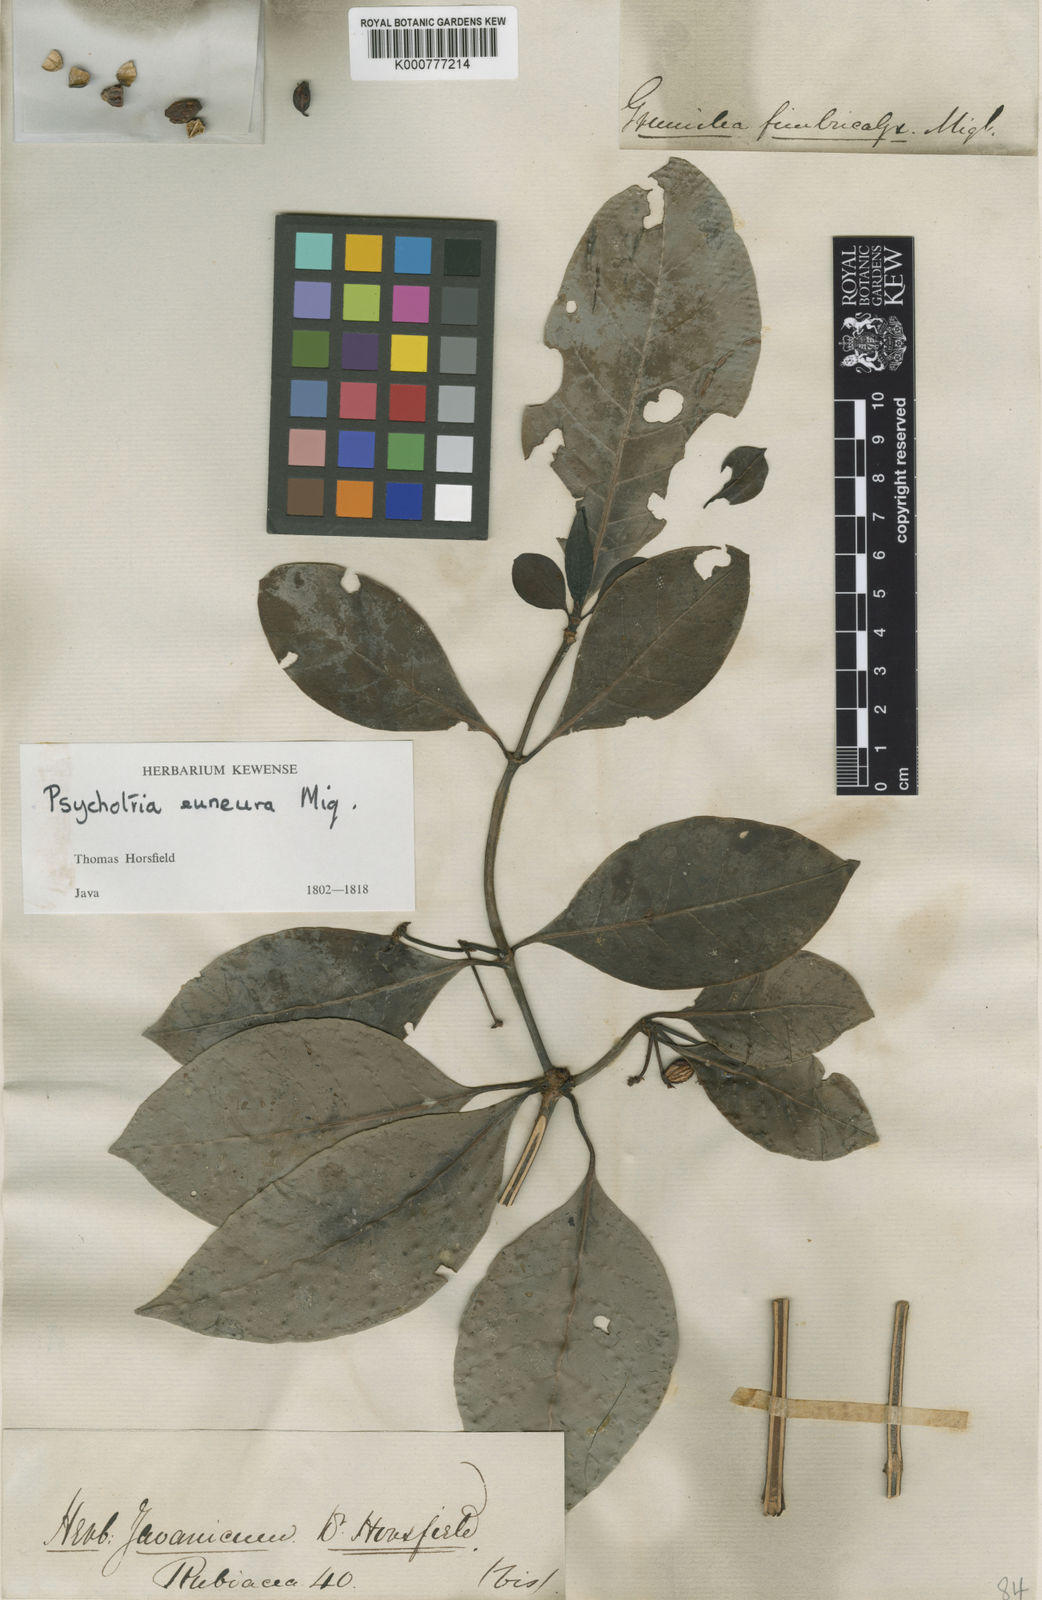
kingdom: Plantae
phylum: Tracheophyta
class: Magnoliopsida
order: Gentianales
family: Rubiaceae
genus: Psychotria
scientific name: Psychotria euneura
